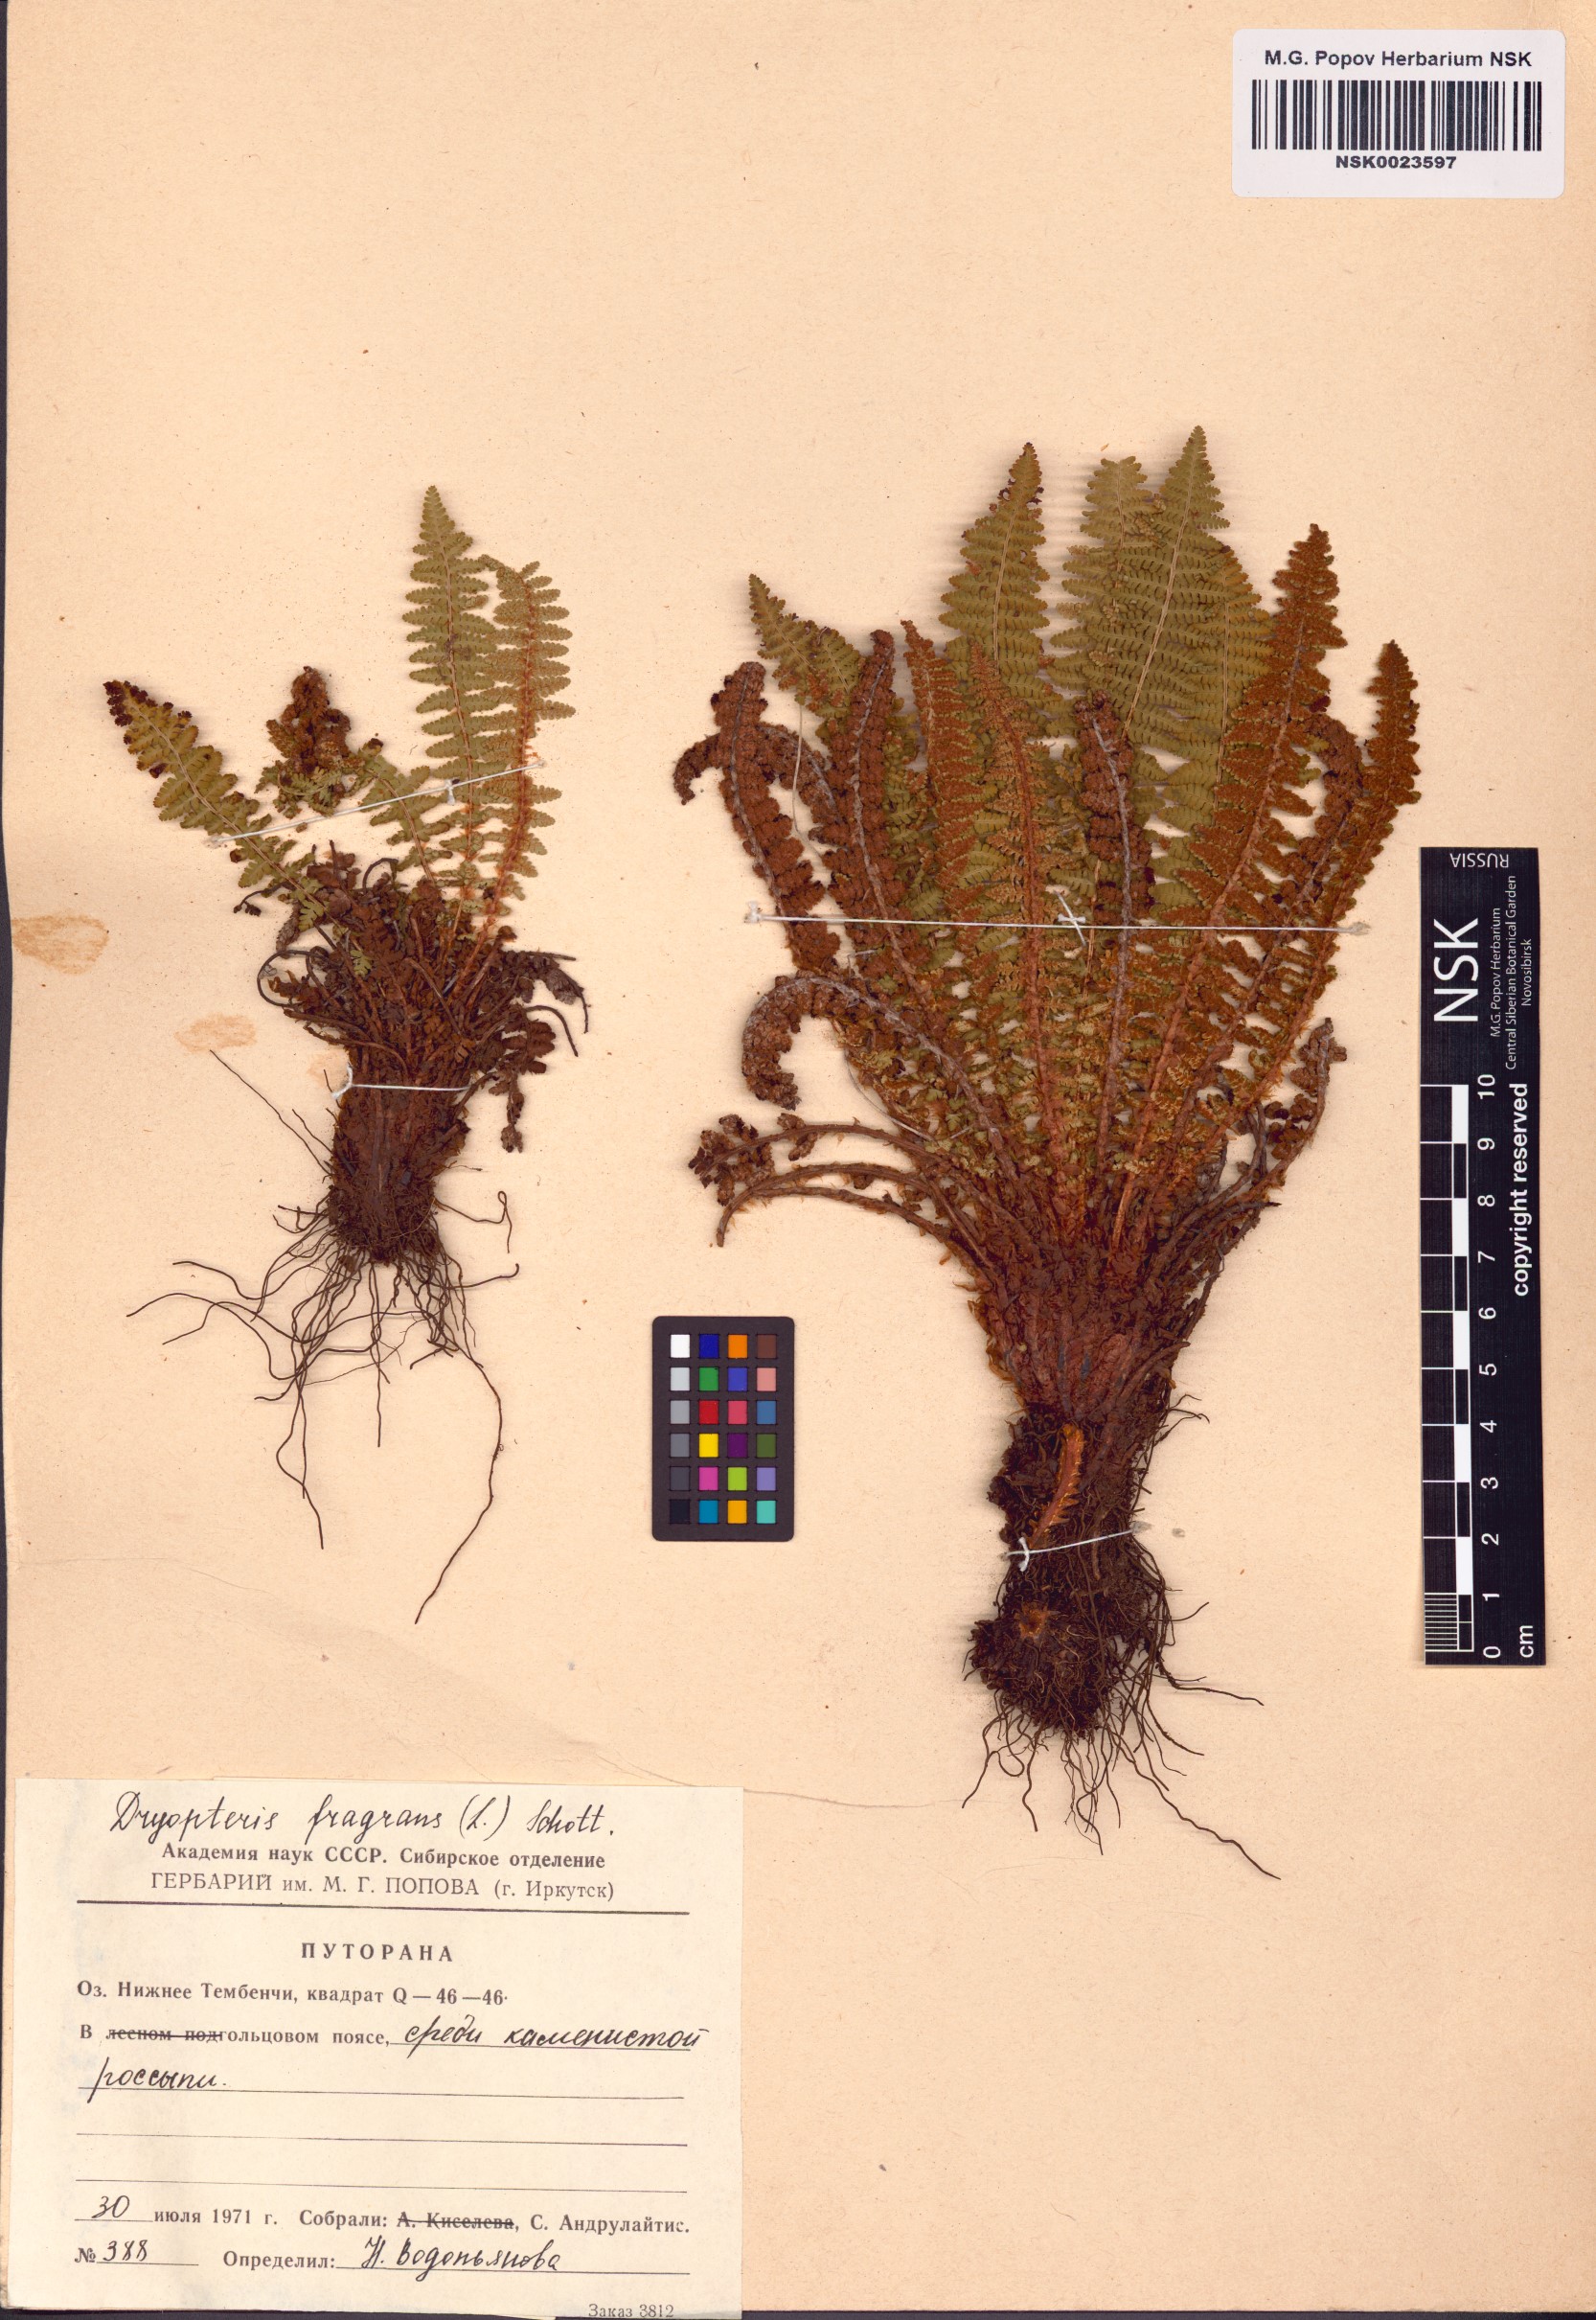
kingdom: Plantae
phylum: Tracheophyta
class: Polypodiopsida
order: Polypodiales
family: Dryopteridaceae
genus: Dryopteris
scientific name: Dryopteris fragrans
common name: Fragrant wood fern
